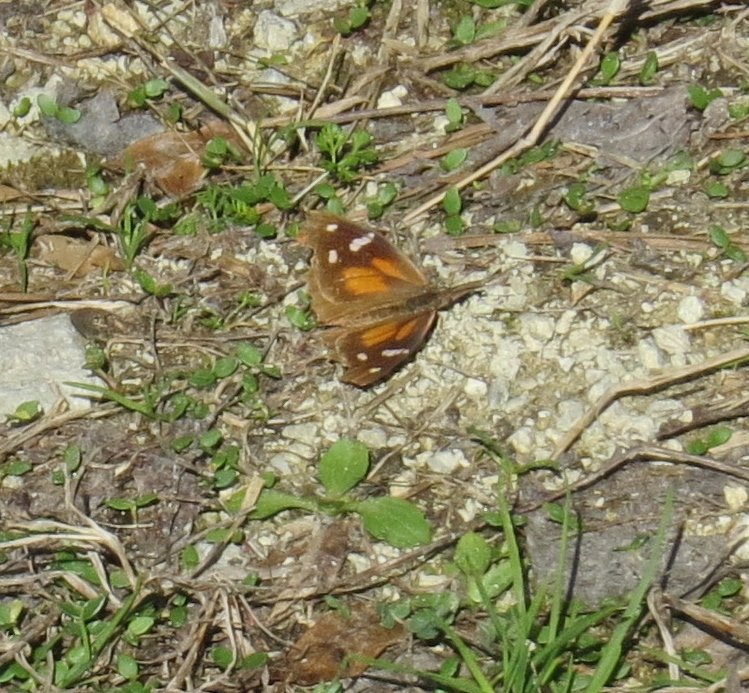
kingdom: Animalia
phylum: Arthropoda
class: Insecta
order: Lepidoptera
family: Nymphalidae
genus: Libytheana
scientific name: Libytheana carinenta
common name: American Snout
